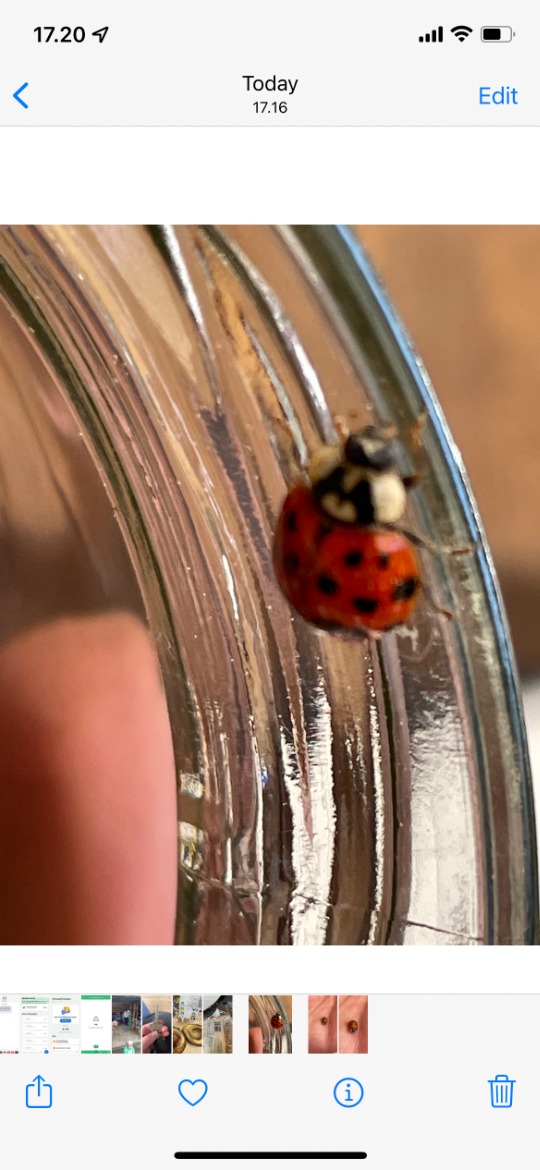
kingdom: Animalia
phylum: Arthropoda
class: Insecta
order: Coleoptera
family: Coccinellidae
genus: Harmonia
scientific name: Harmonia axyridis
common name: Harlekinmariehøne
